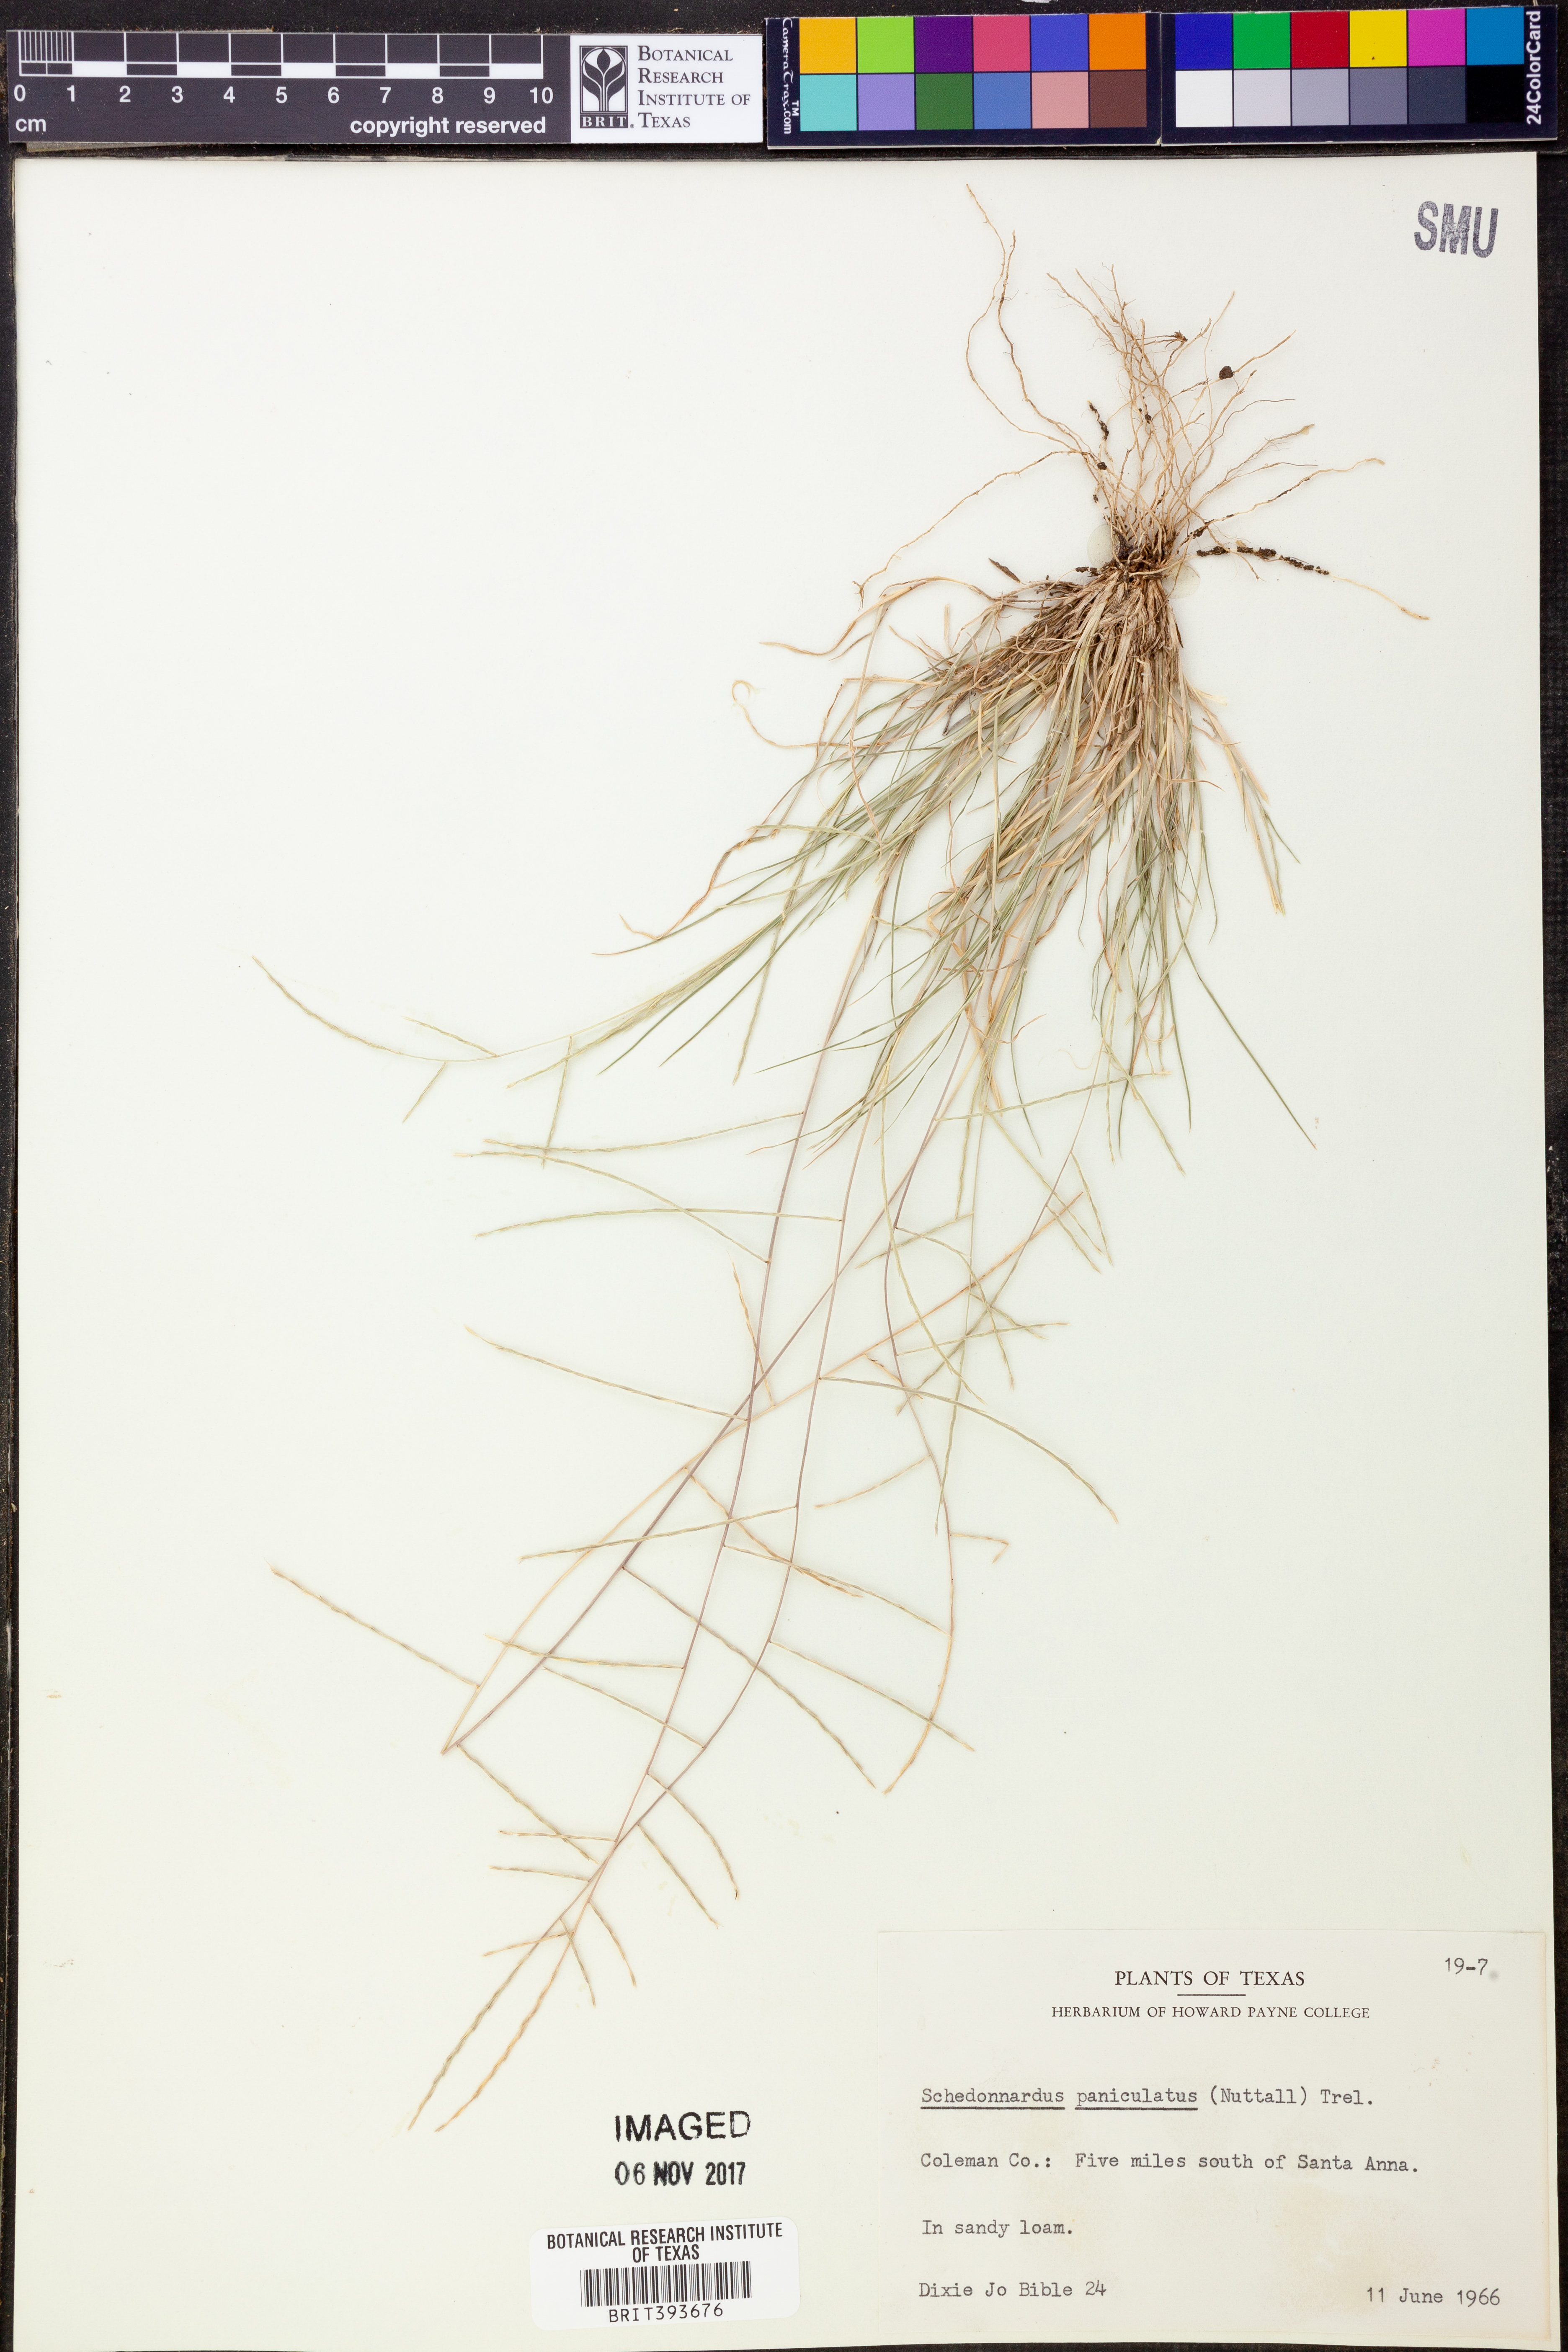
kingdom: Plantae
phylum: Tracheophyta
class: Liliopsida
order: Poales
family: Poaceae
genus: Muhlenbergia
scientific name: Muhlenbergia paniculata
